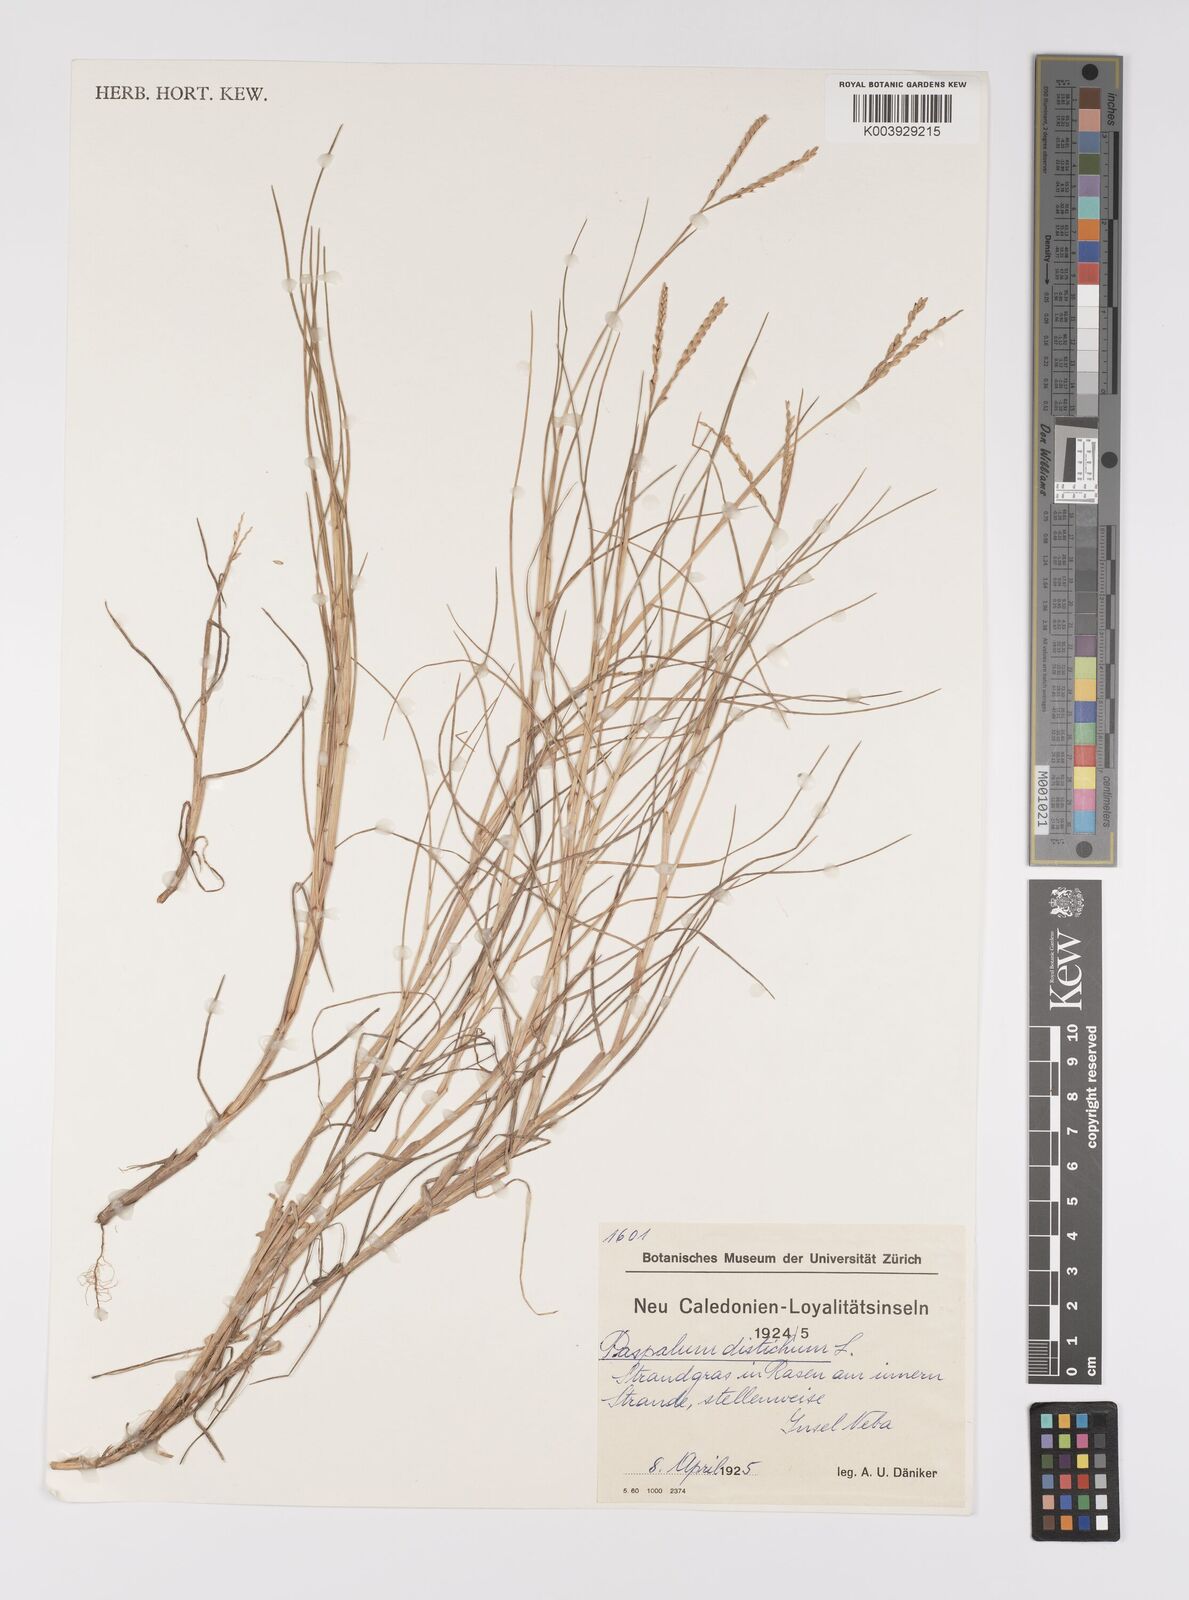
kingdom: Plantae
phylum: Tracheophyta
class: Liliopsida
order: Poales
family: Poaceae
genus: Paspalum
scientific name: Paspalum vaginatum
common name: Seashore paspalum
